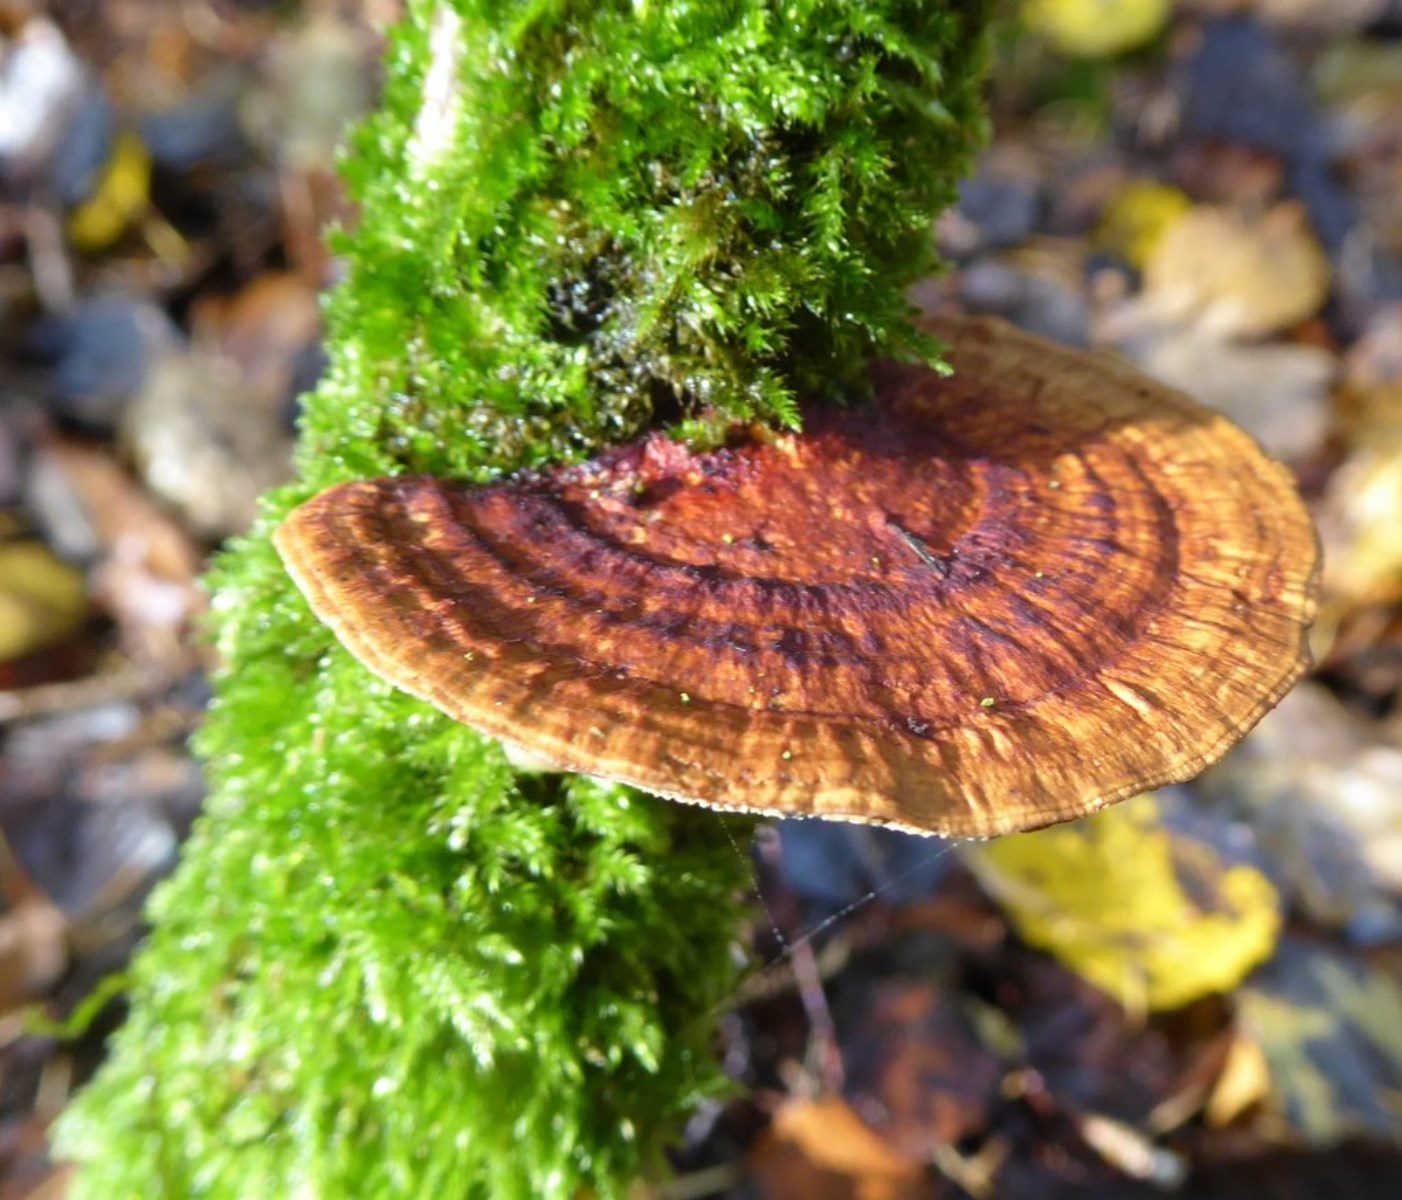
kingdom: Fungi
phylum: Basidiomycota
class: Agaricomycetes
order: Polyporales
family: Polyporaceae
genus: Daedaleopsis
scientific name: Daedaleopsis confragosa
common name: rødmende læderporesvamp
